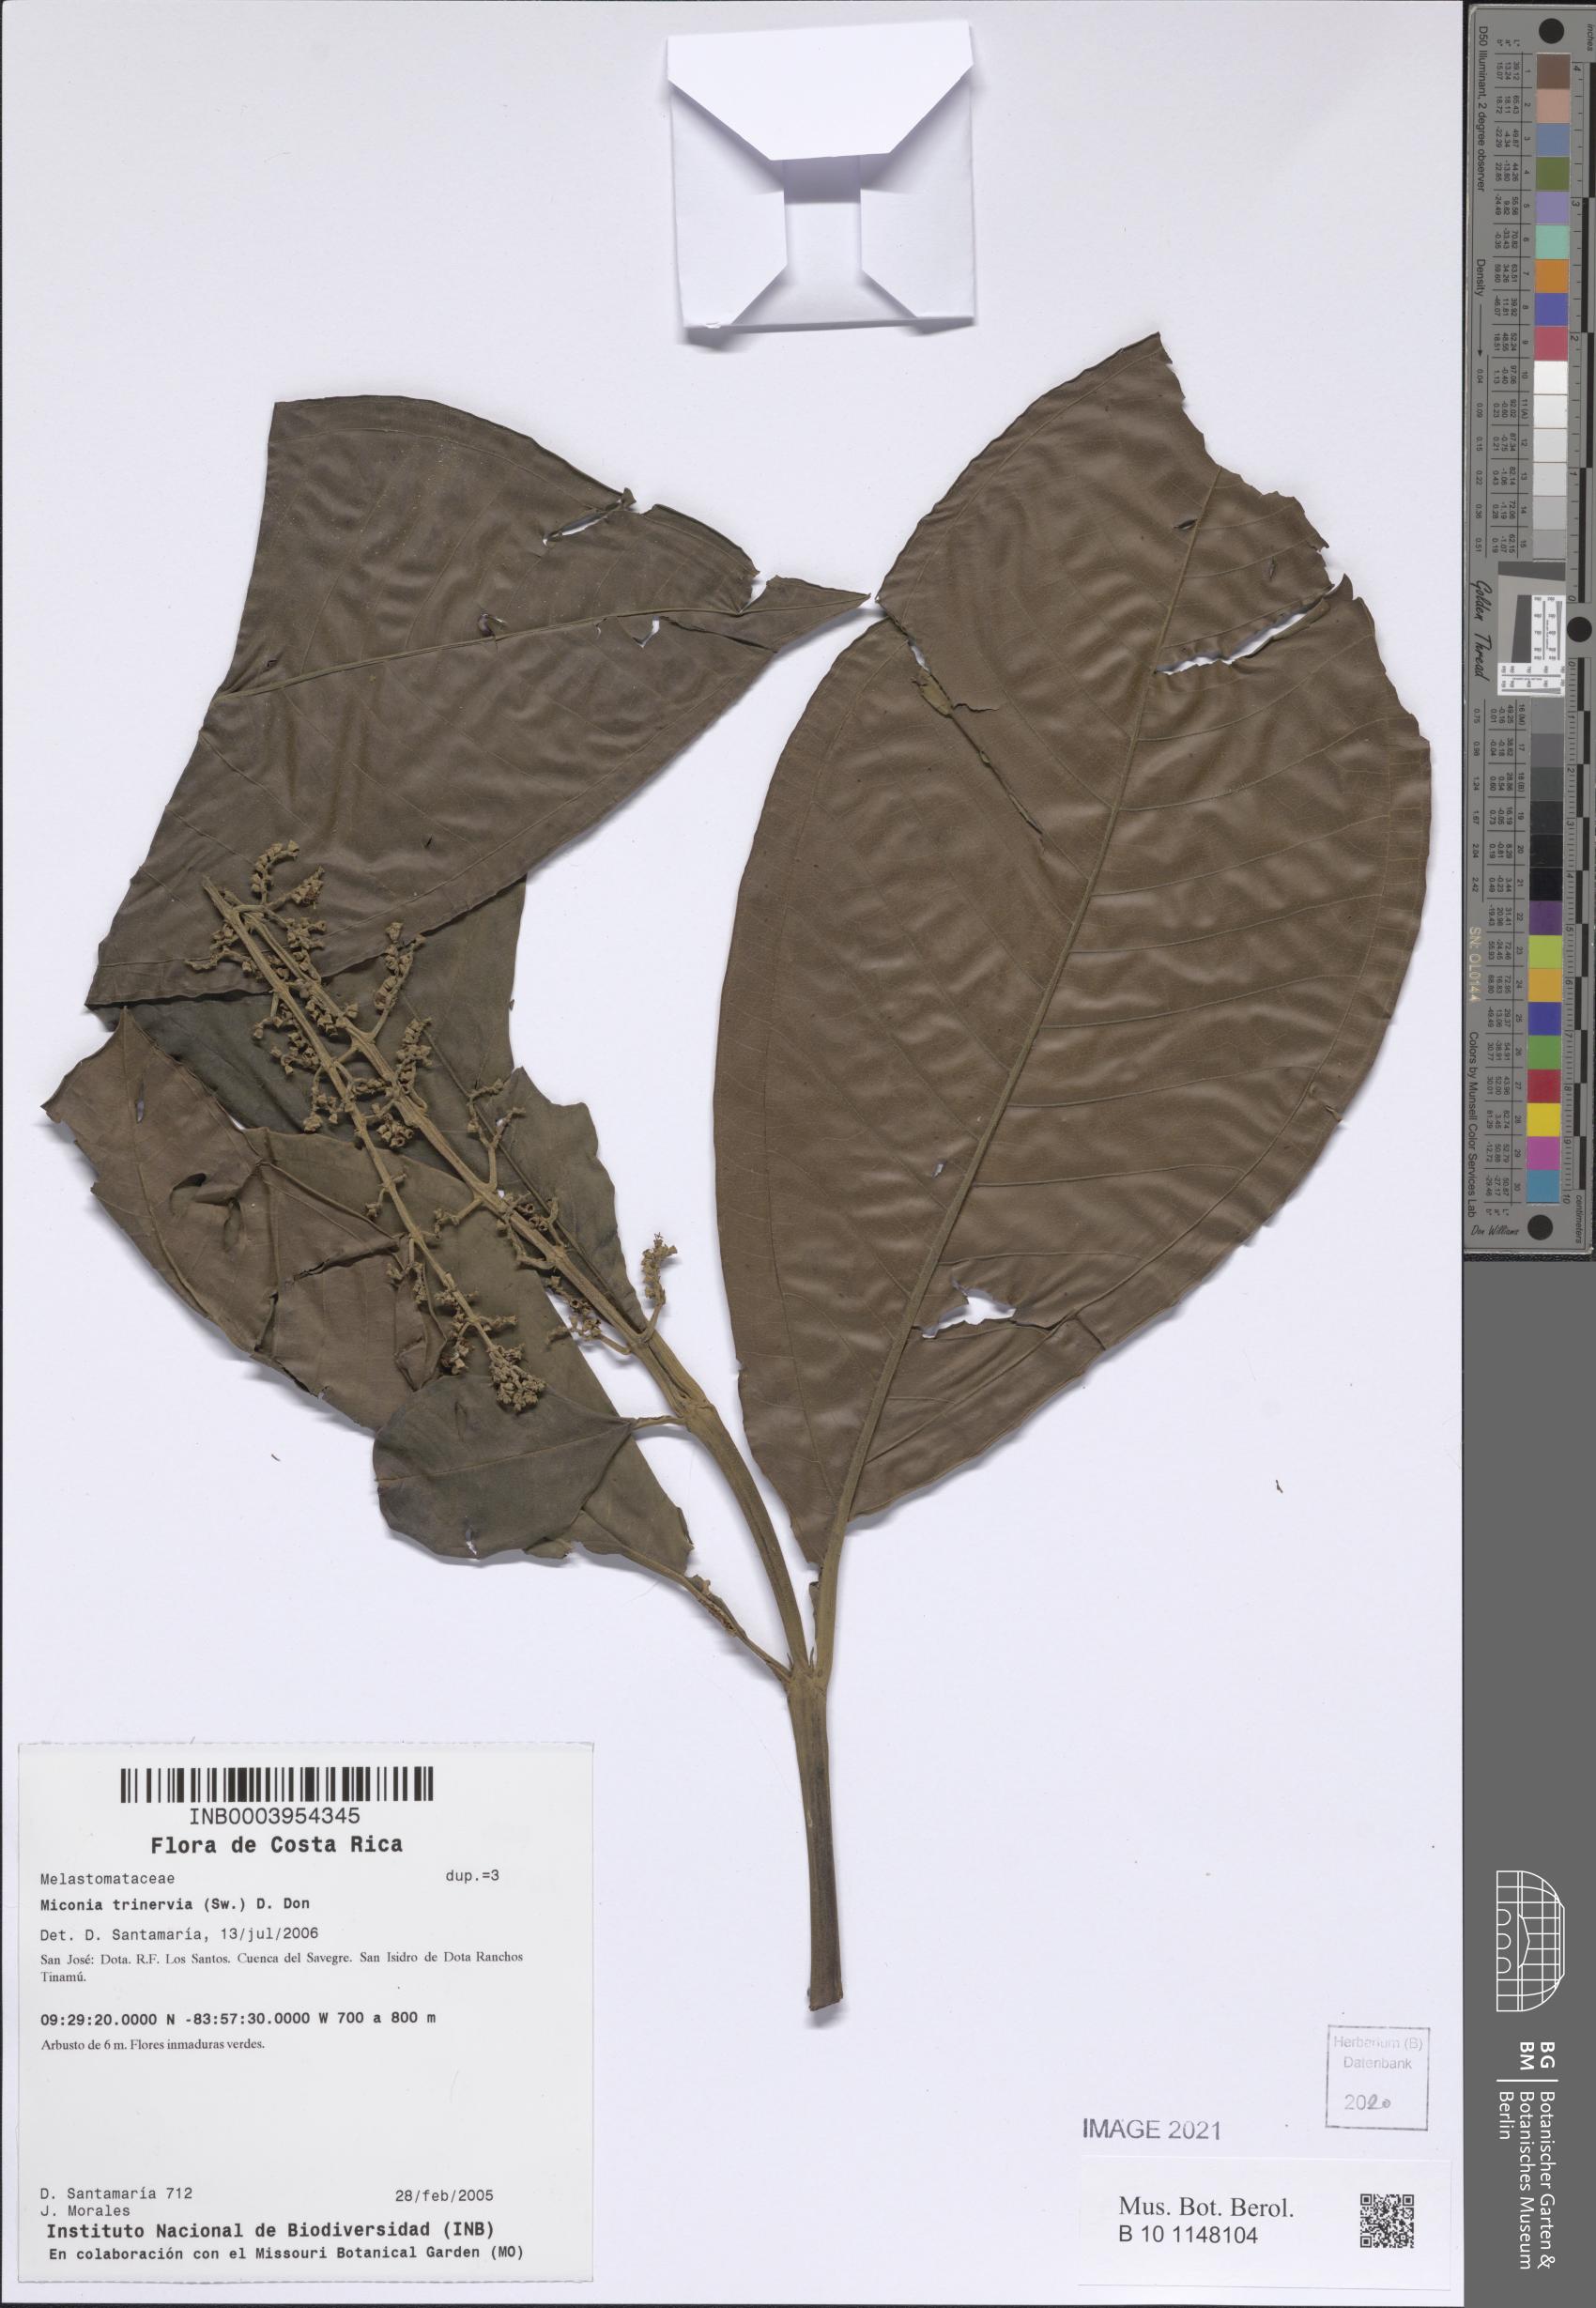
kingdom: Plantae
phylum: Tracheophyta
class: Magnoliopsida
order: Myrtales
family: Melastomataceae
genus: Miconia
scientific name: Miconia trinervia
